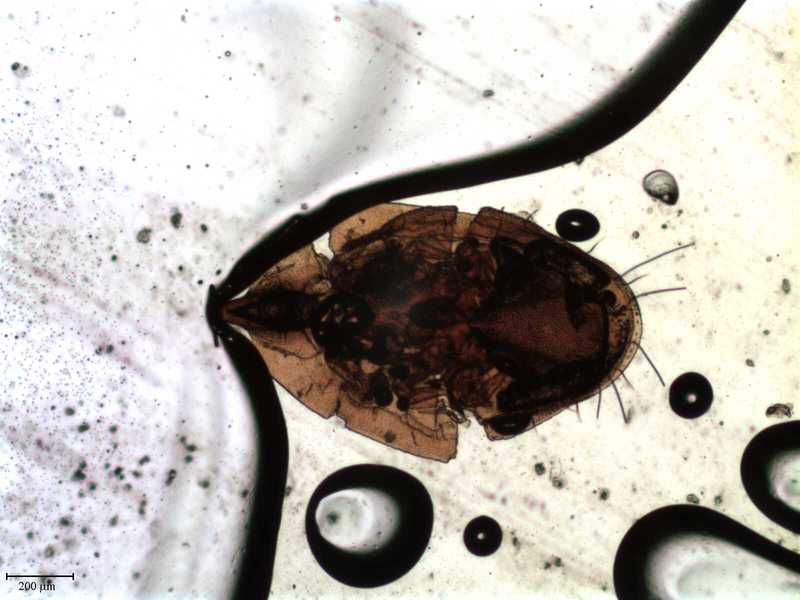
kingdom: Animalia
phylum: Arthropoda
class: Arachnida
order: Mesostigmata
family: Uropodidae
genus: Planodiscus
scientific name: Planodiscus
